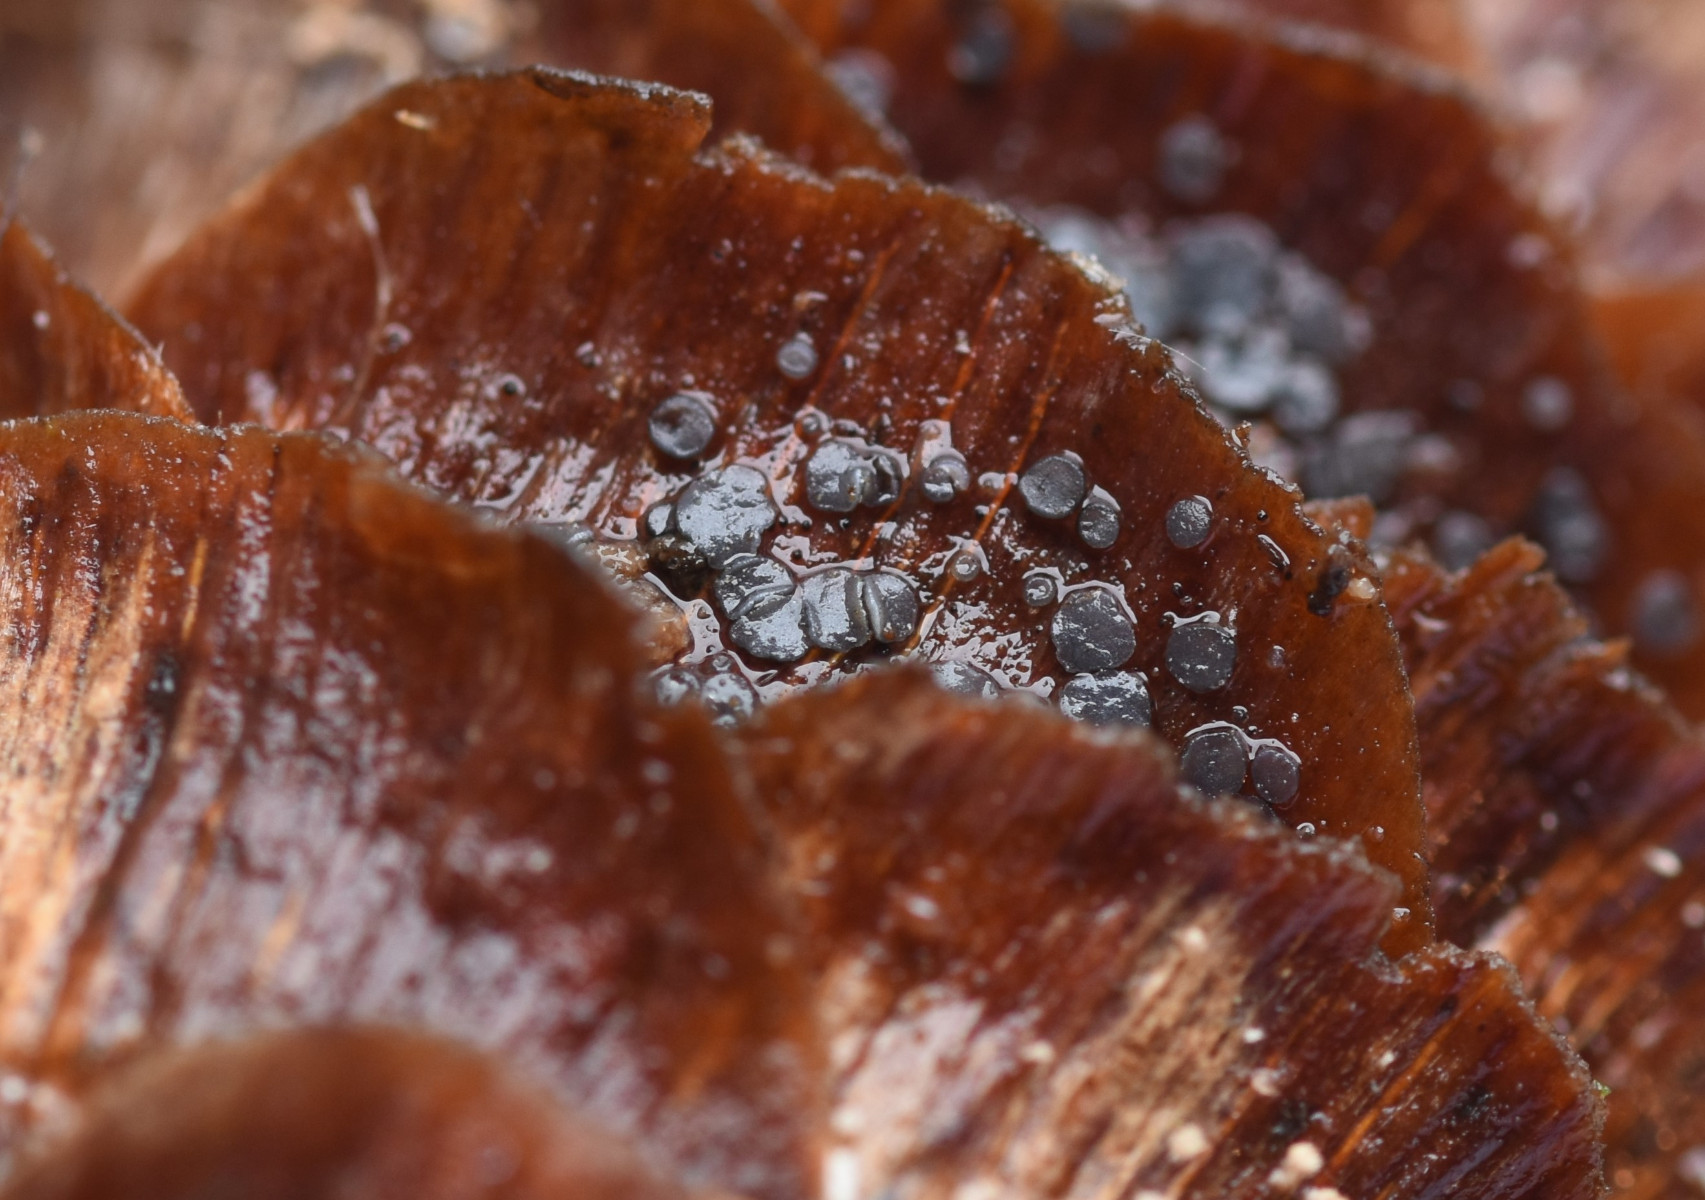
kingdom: Fungi
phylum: Ascomycota
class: Leotiomycetes
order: Helotiales
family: Mollisiaceae
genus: Mollisia
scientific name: Mollisia
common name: gråskive
